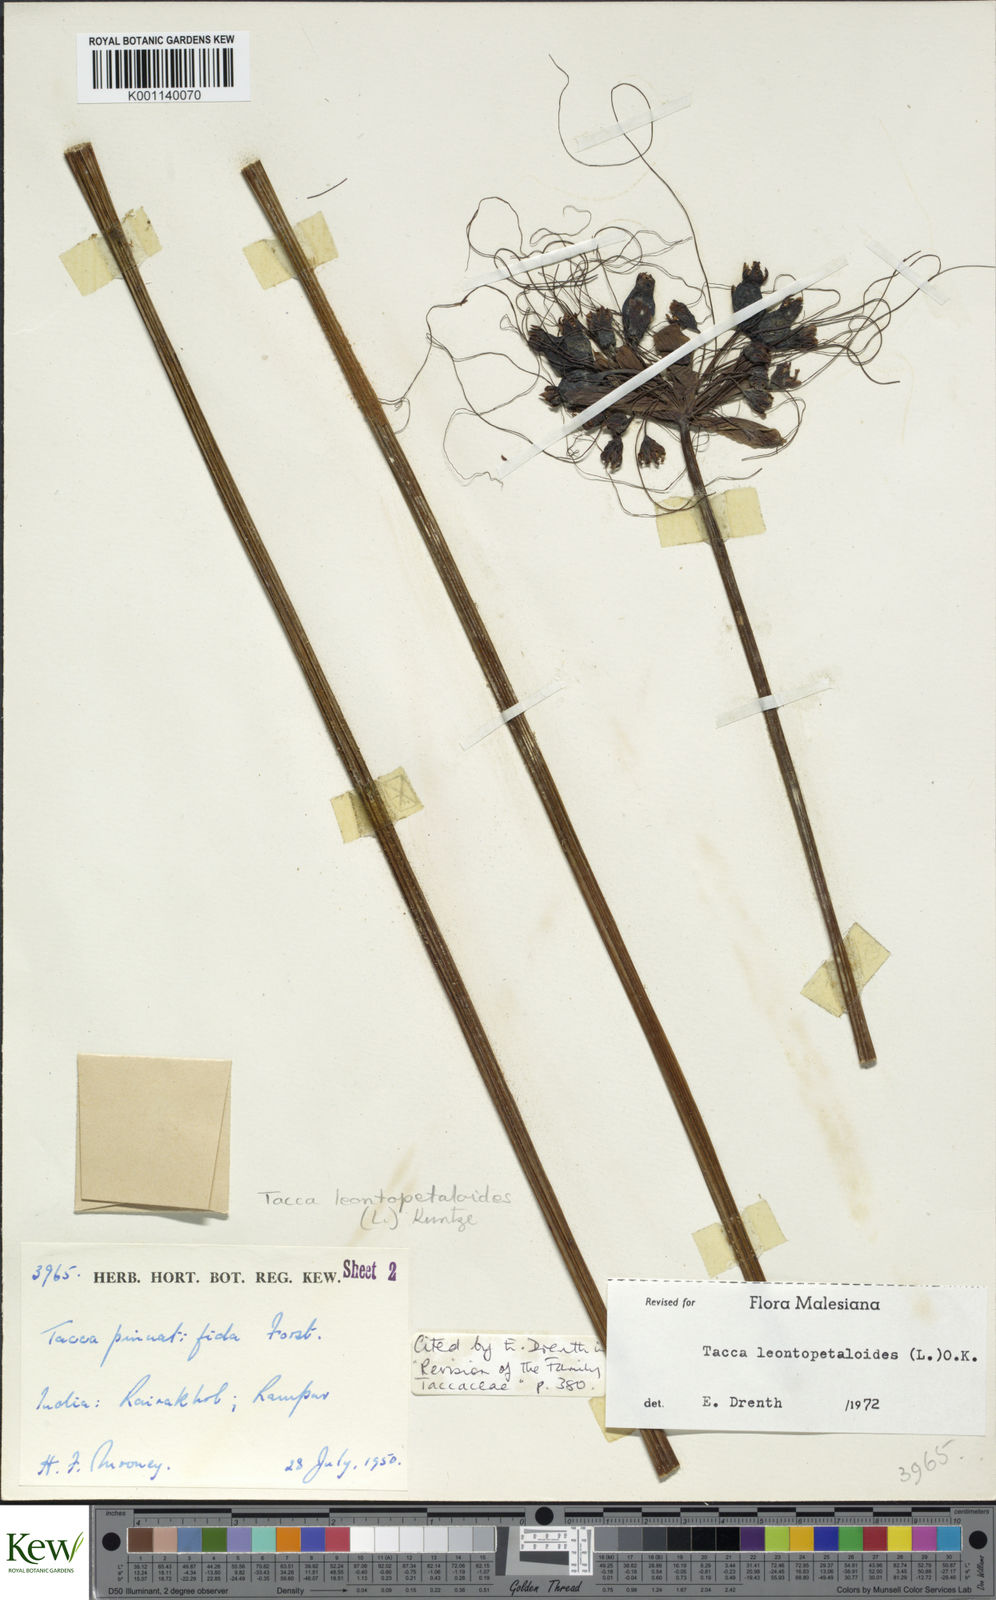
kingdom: Plantae
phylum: Tracheophyta
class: Liliopsida
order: Dioscoreales
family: Dioscoreaceae
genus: Tacca
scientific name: Tacca leontopetaloides
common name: Arrowroot
